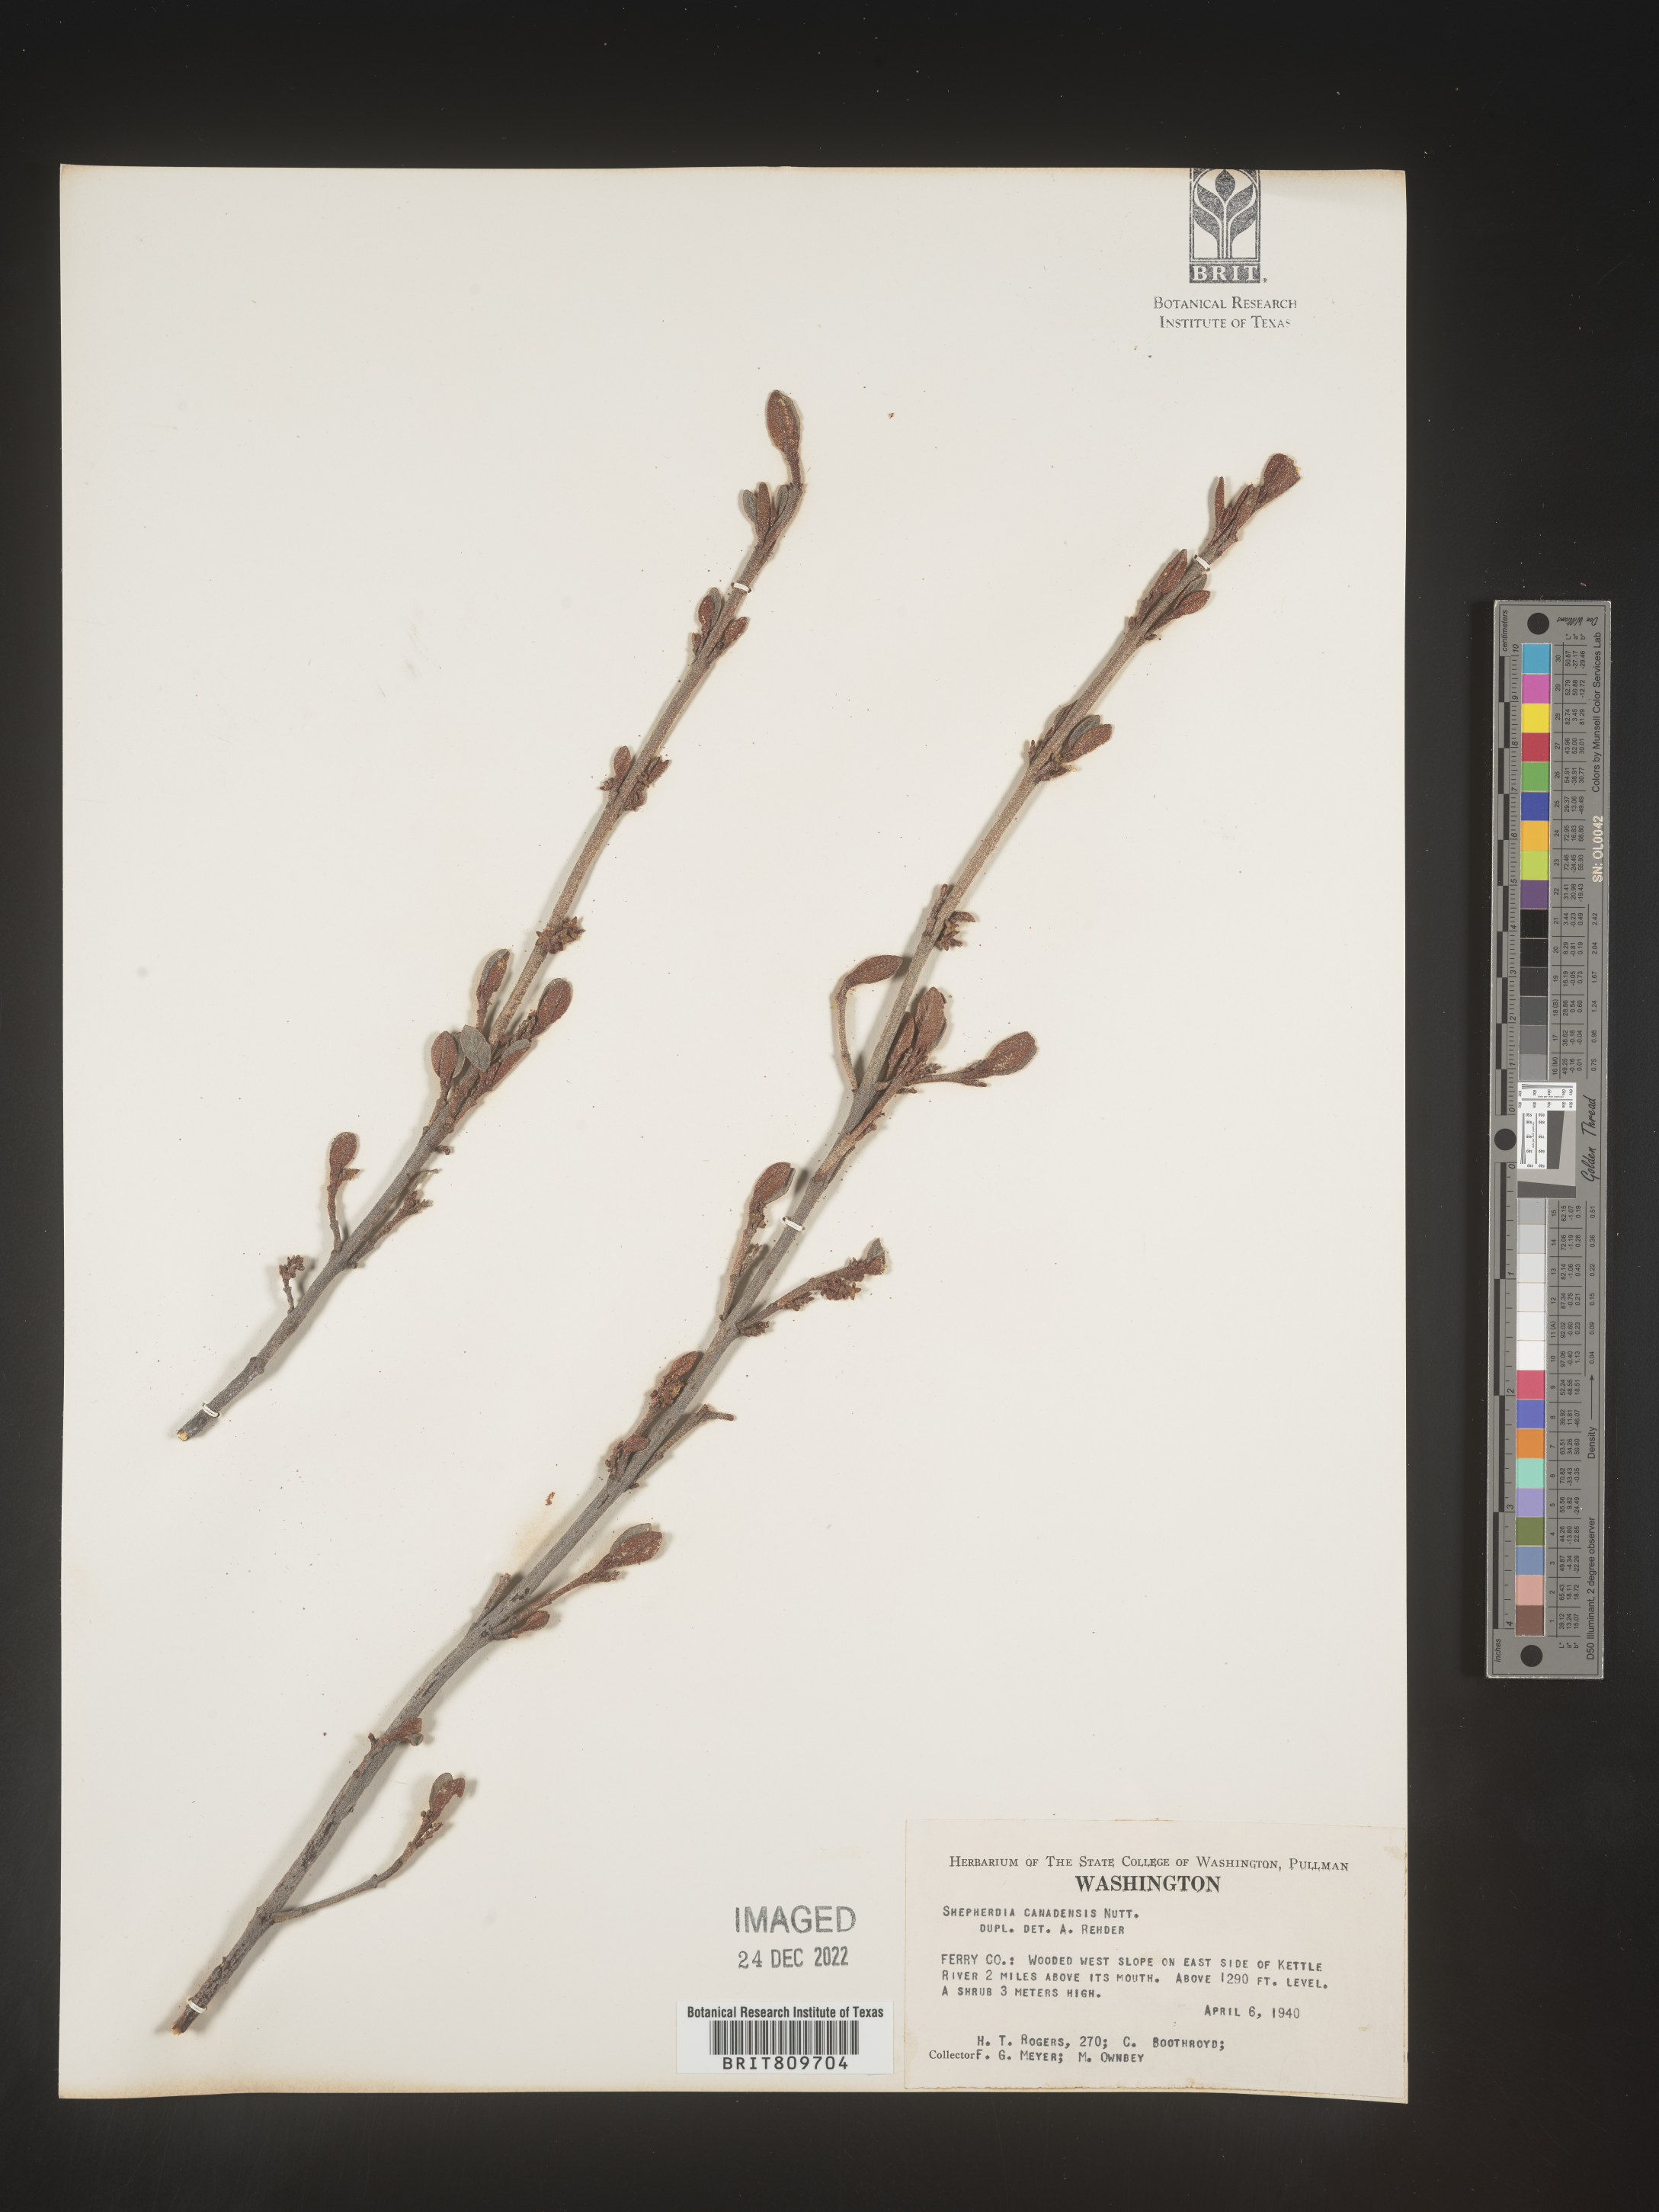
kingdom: Plantae
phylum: Tracheophyta
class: Magnoliopsida
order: Rosales
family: Elaeagnaceae
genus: Shepherdia
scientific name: Shepherdia canadensis
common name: Soapberry
